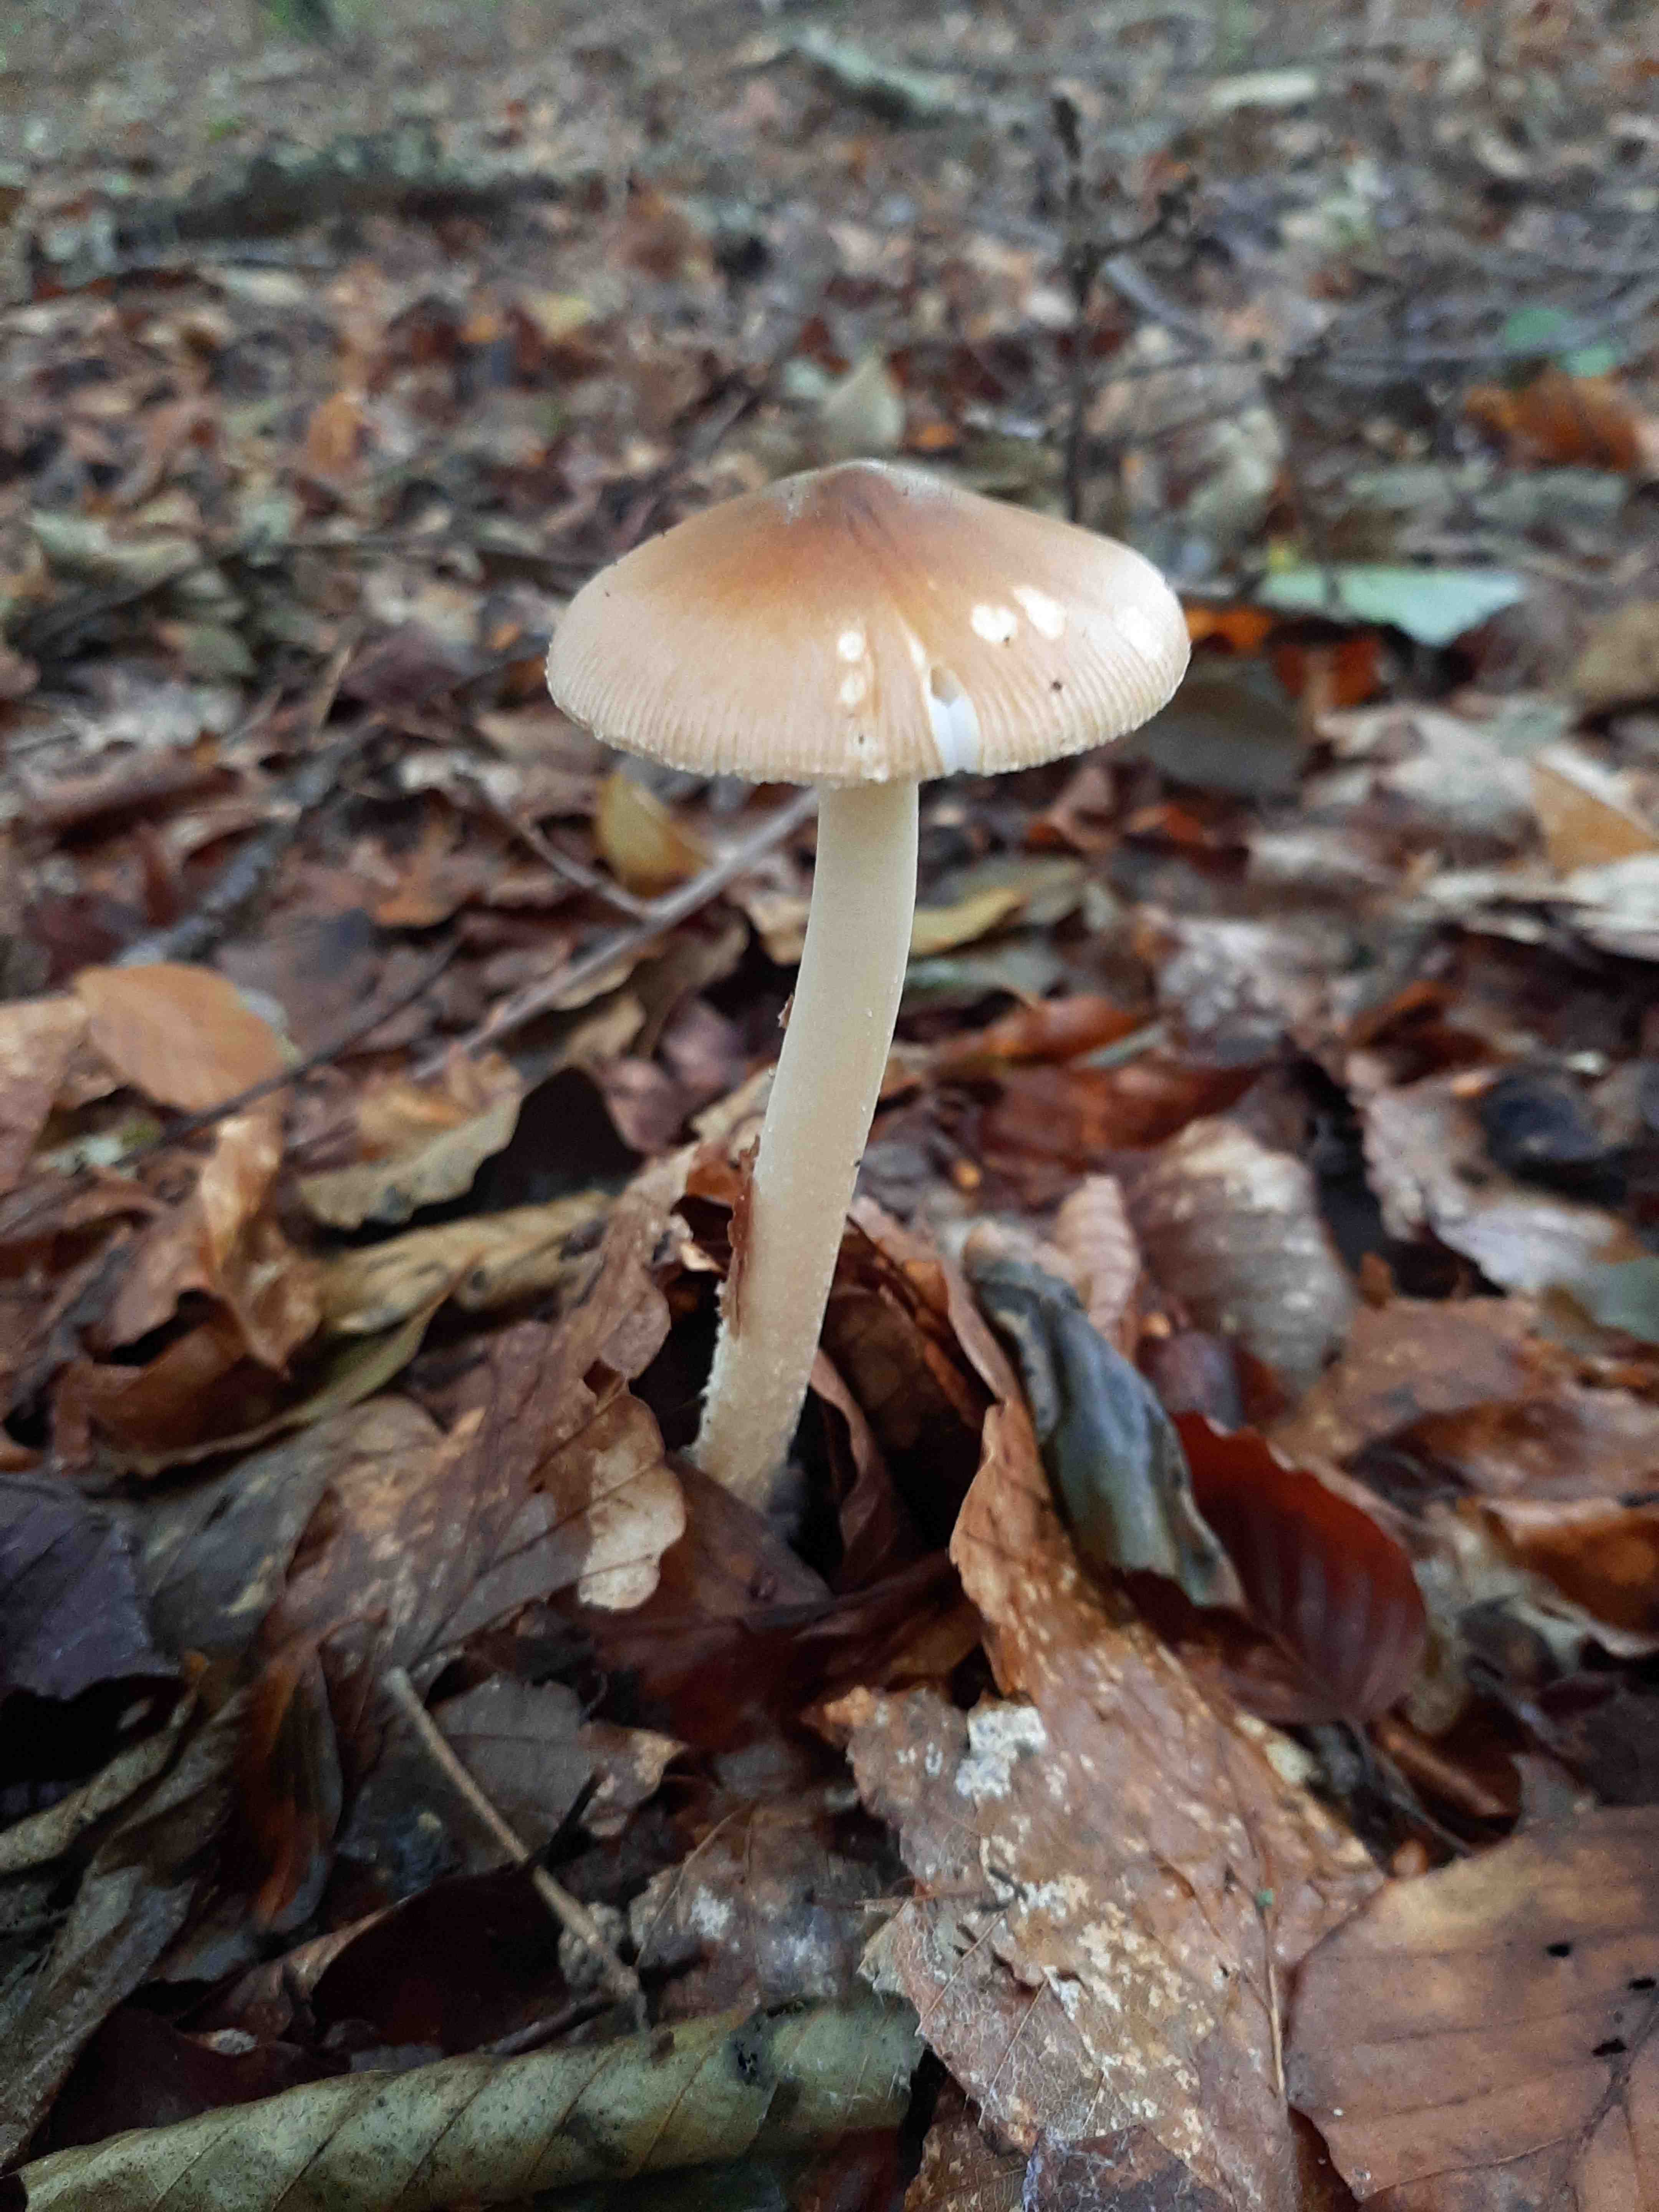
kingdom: Fungi
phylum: Basidiomycota
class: Agaricomycetes
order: Agaricales
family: Amanitaceae
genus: Amanita
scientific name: Amanita fulva
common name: brun kam-fluesvamp
